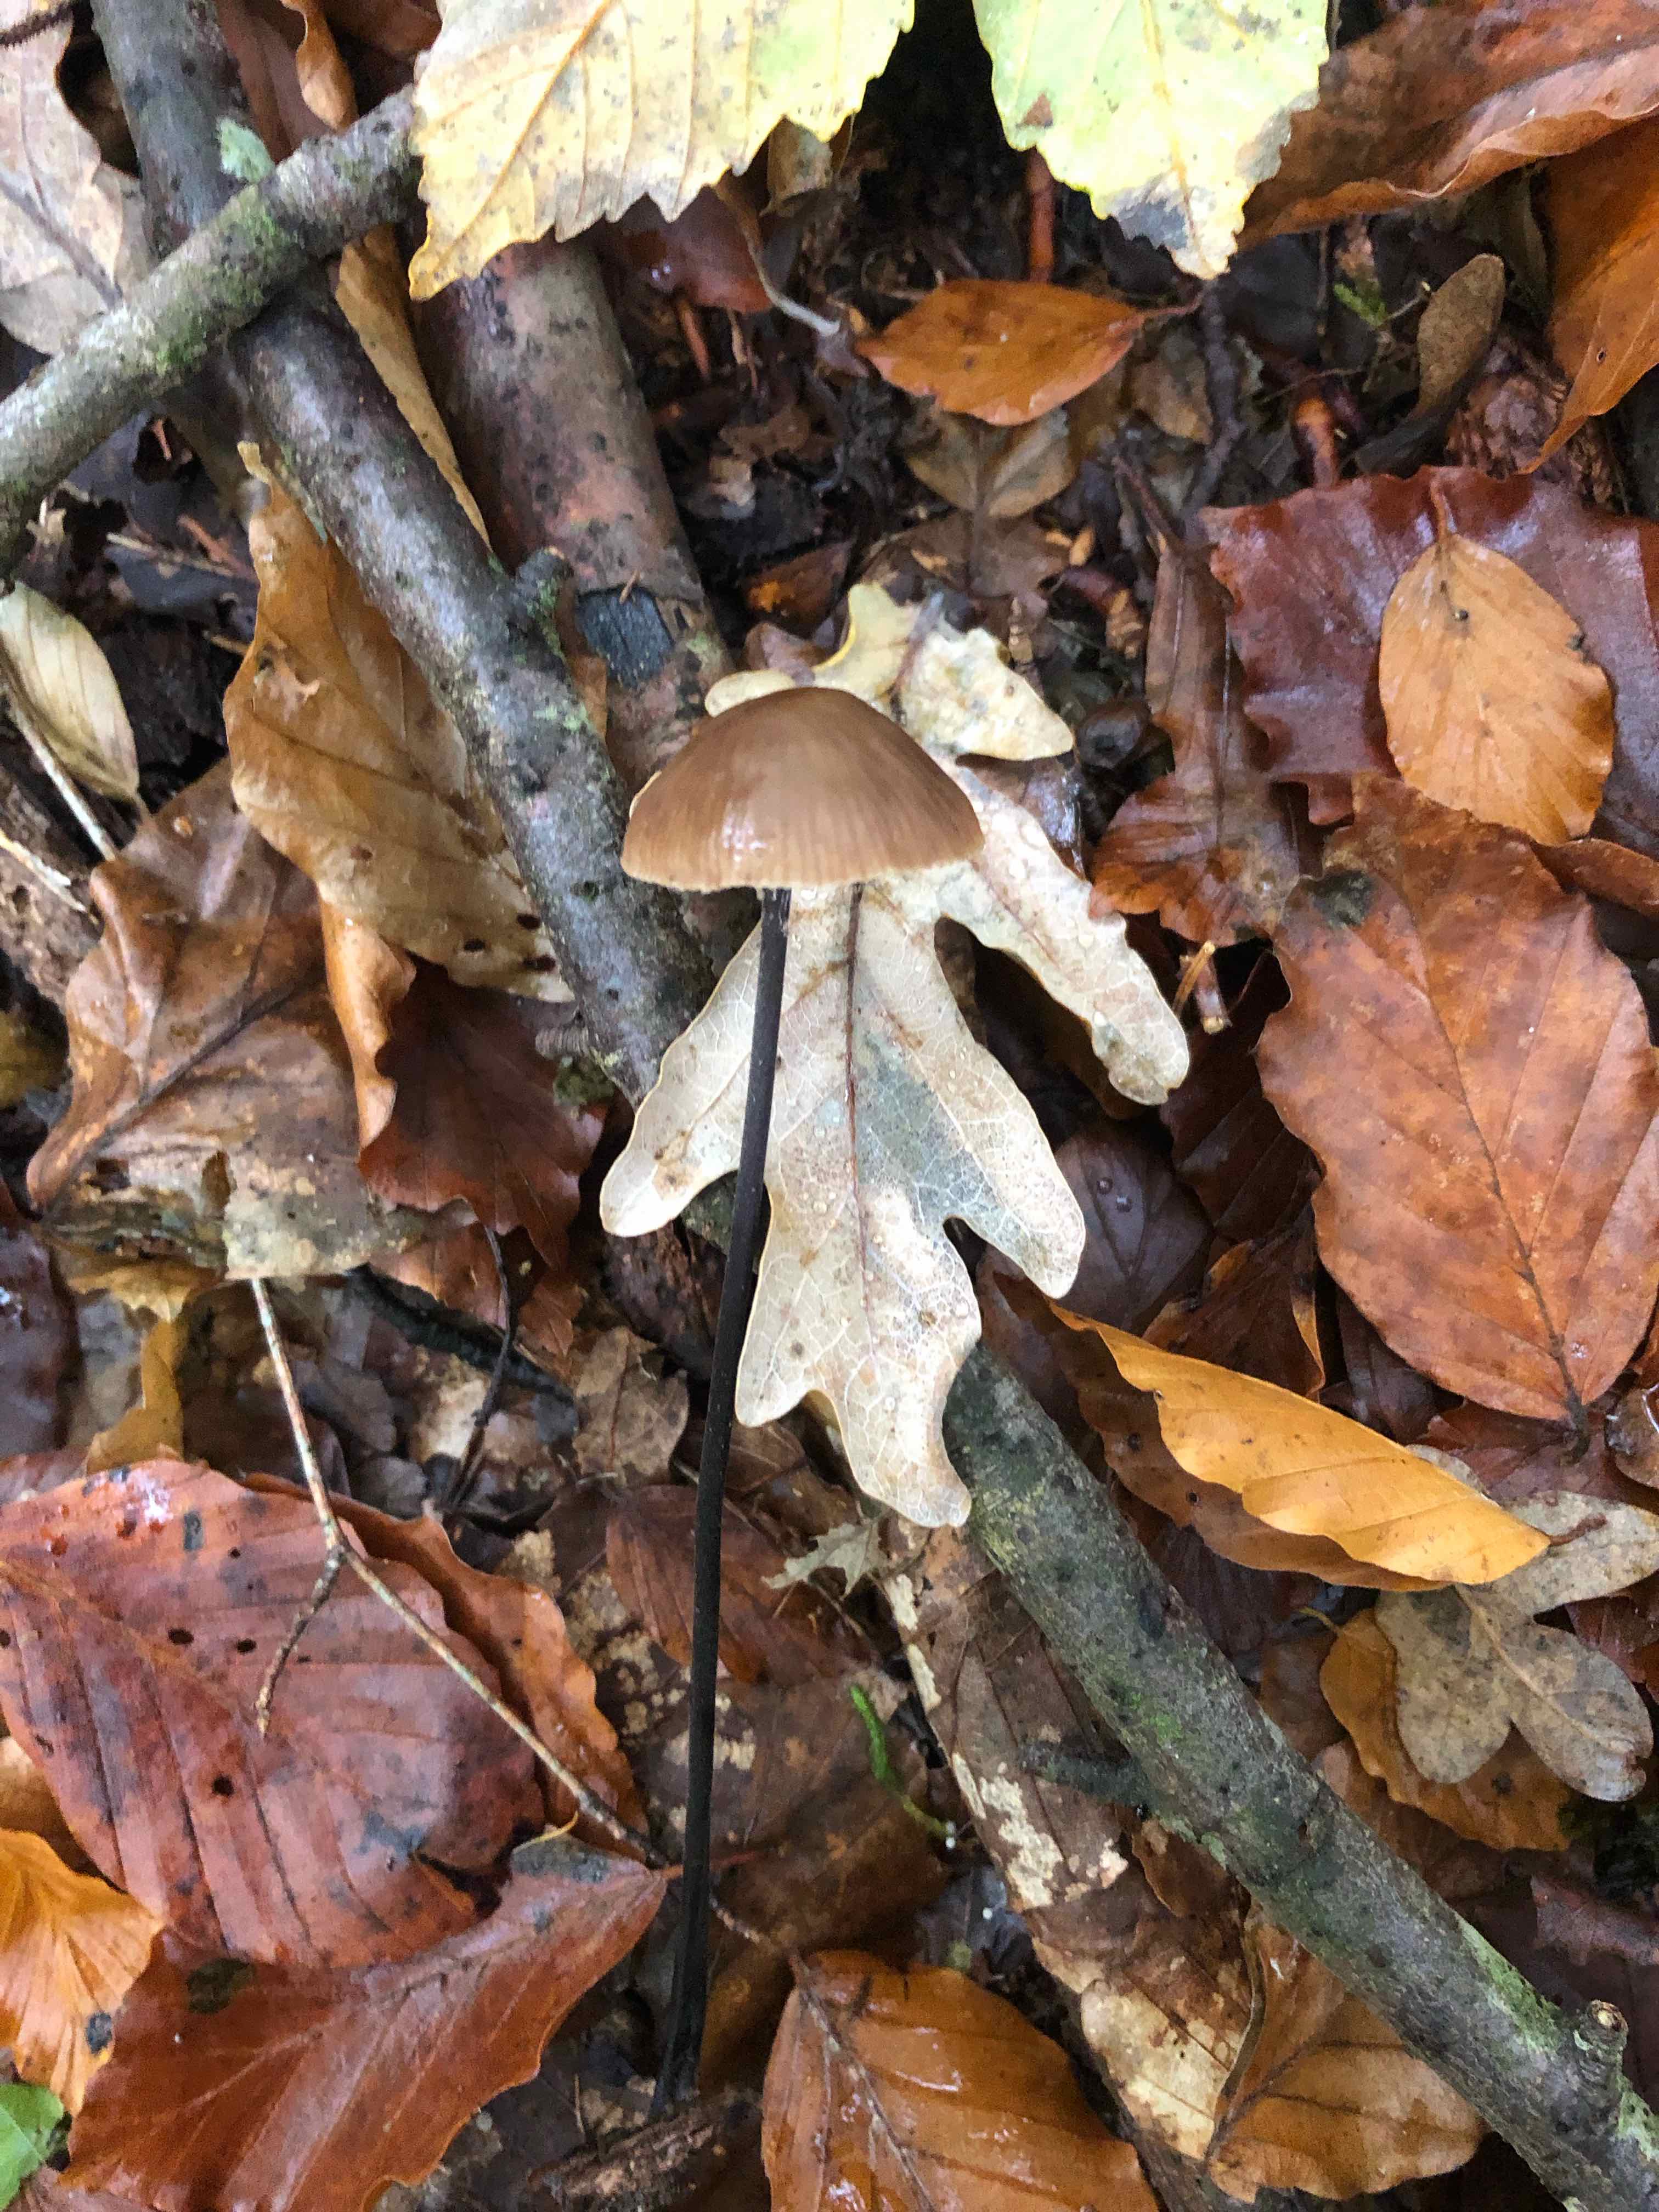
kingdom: Fungi
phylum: Basidiomycota
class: Agaricomycetes
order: Agaricales
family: Omphalotaceae
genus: Mycetinis
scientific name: Mycetinis alliaceus
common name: stor løghat
